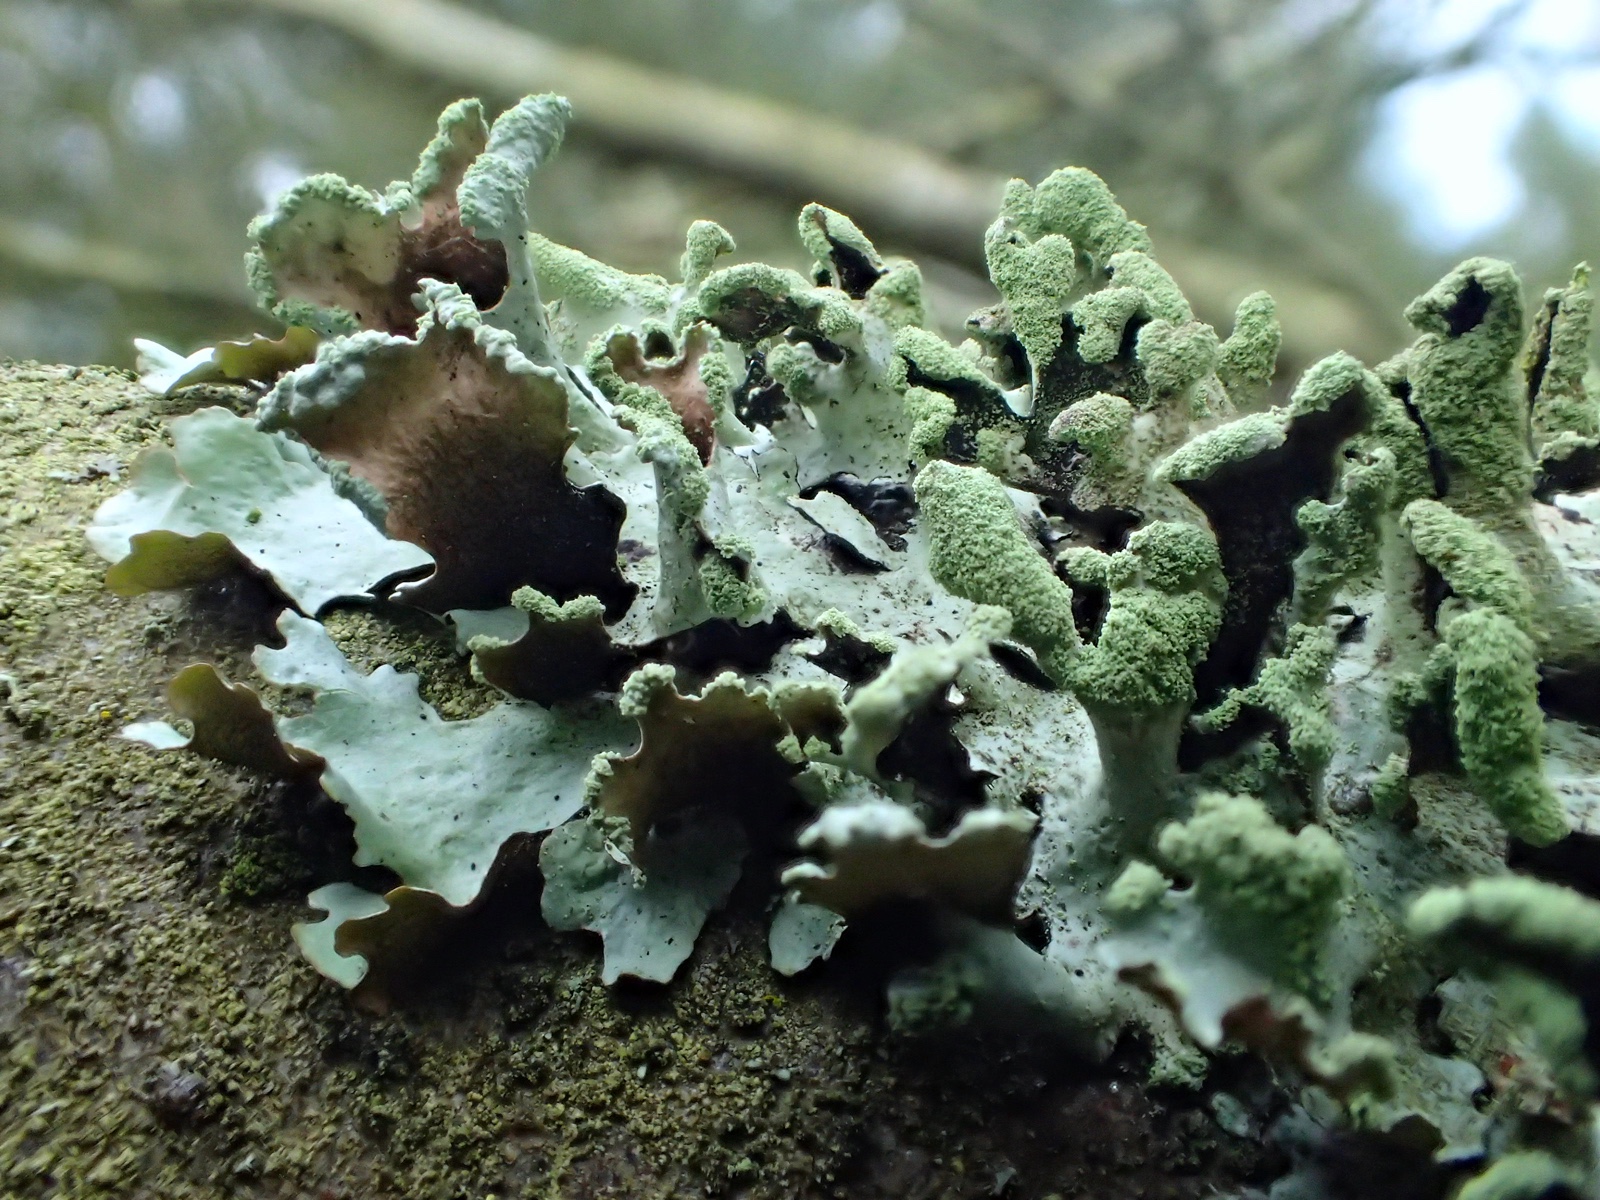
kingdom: Fungi
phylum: Ascomycota
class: Lecanoromycetes
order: Lecanorales
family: Parmeliaceae
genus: Hypotrachyna
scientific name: Hypotrachyna revoluta
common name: bleggrå skållav
